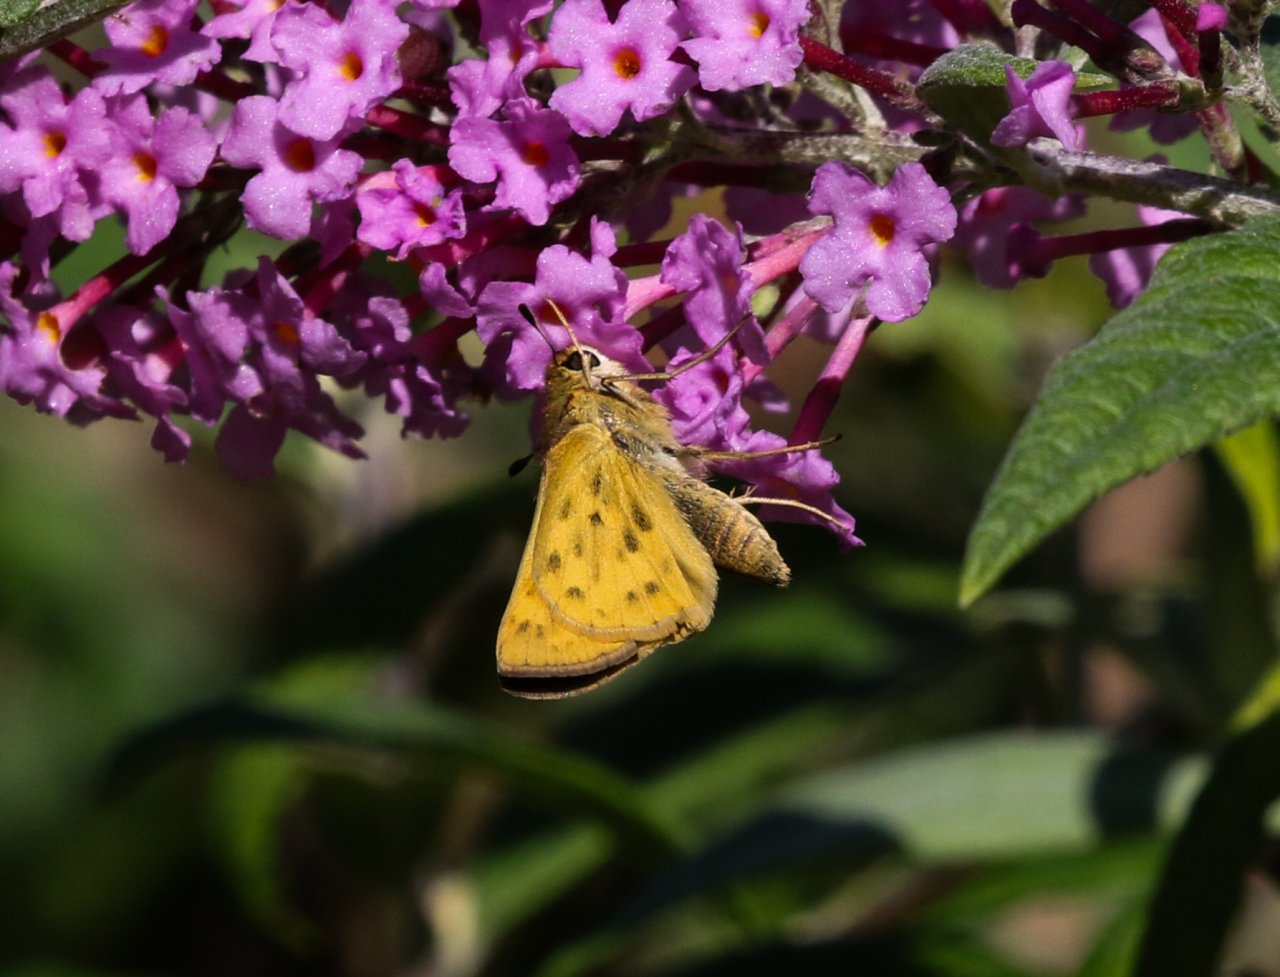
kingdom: Animalia
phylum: Arthropoda
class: Insecta
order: Lepidoptera
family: Hesperiidae
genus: Hylephila
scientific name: Hylephila phyleus
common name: Fiery Skipper
